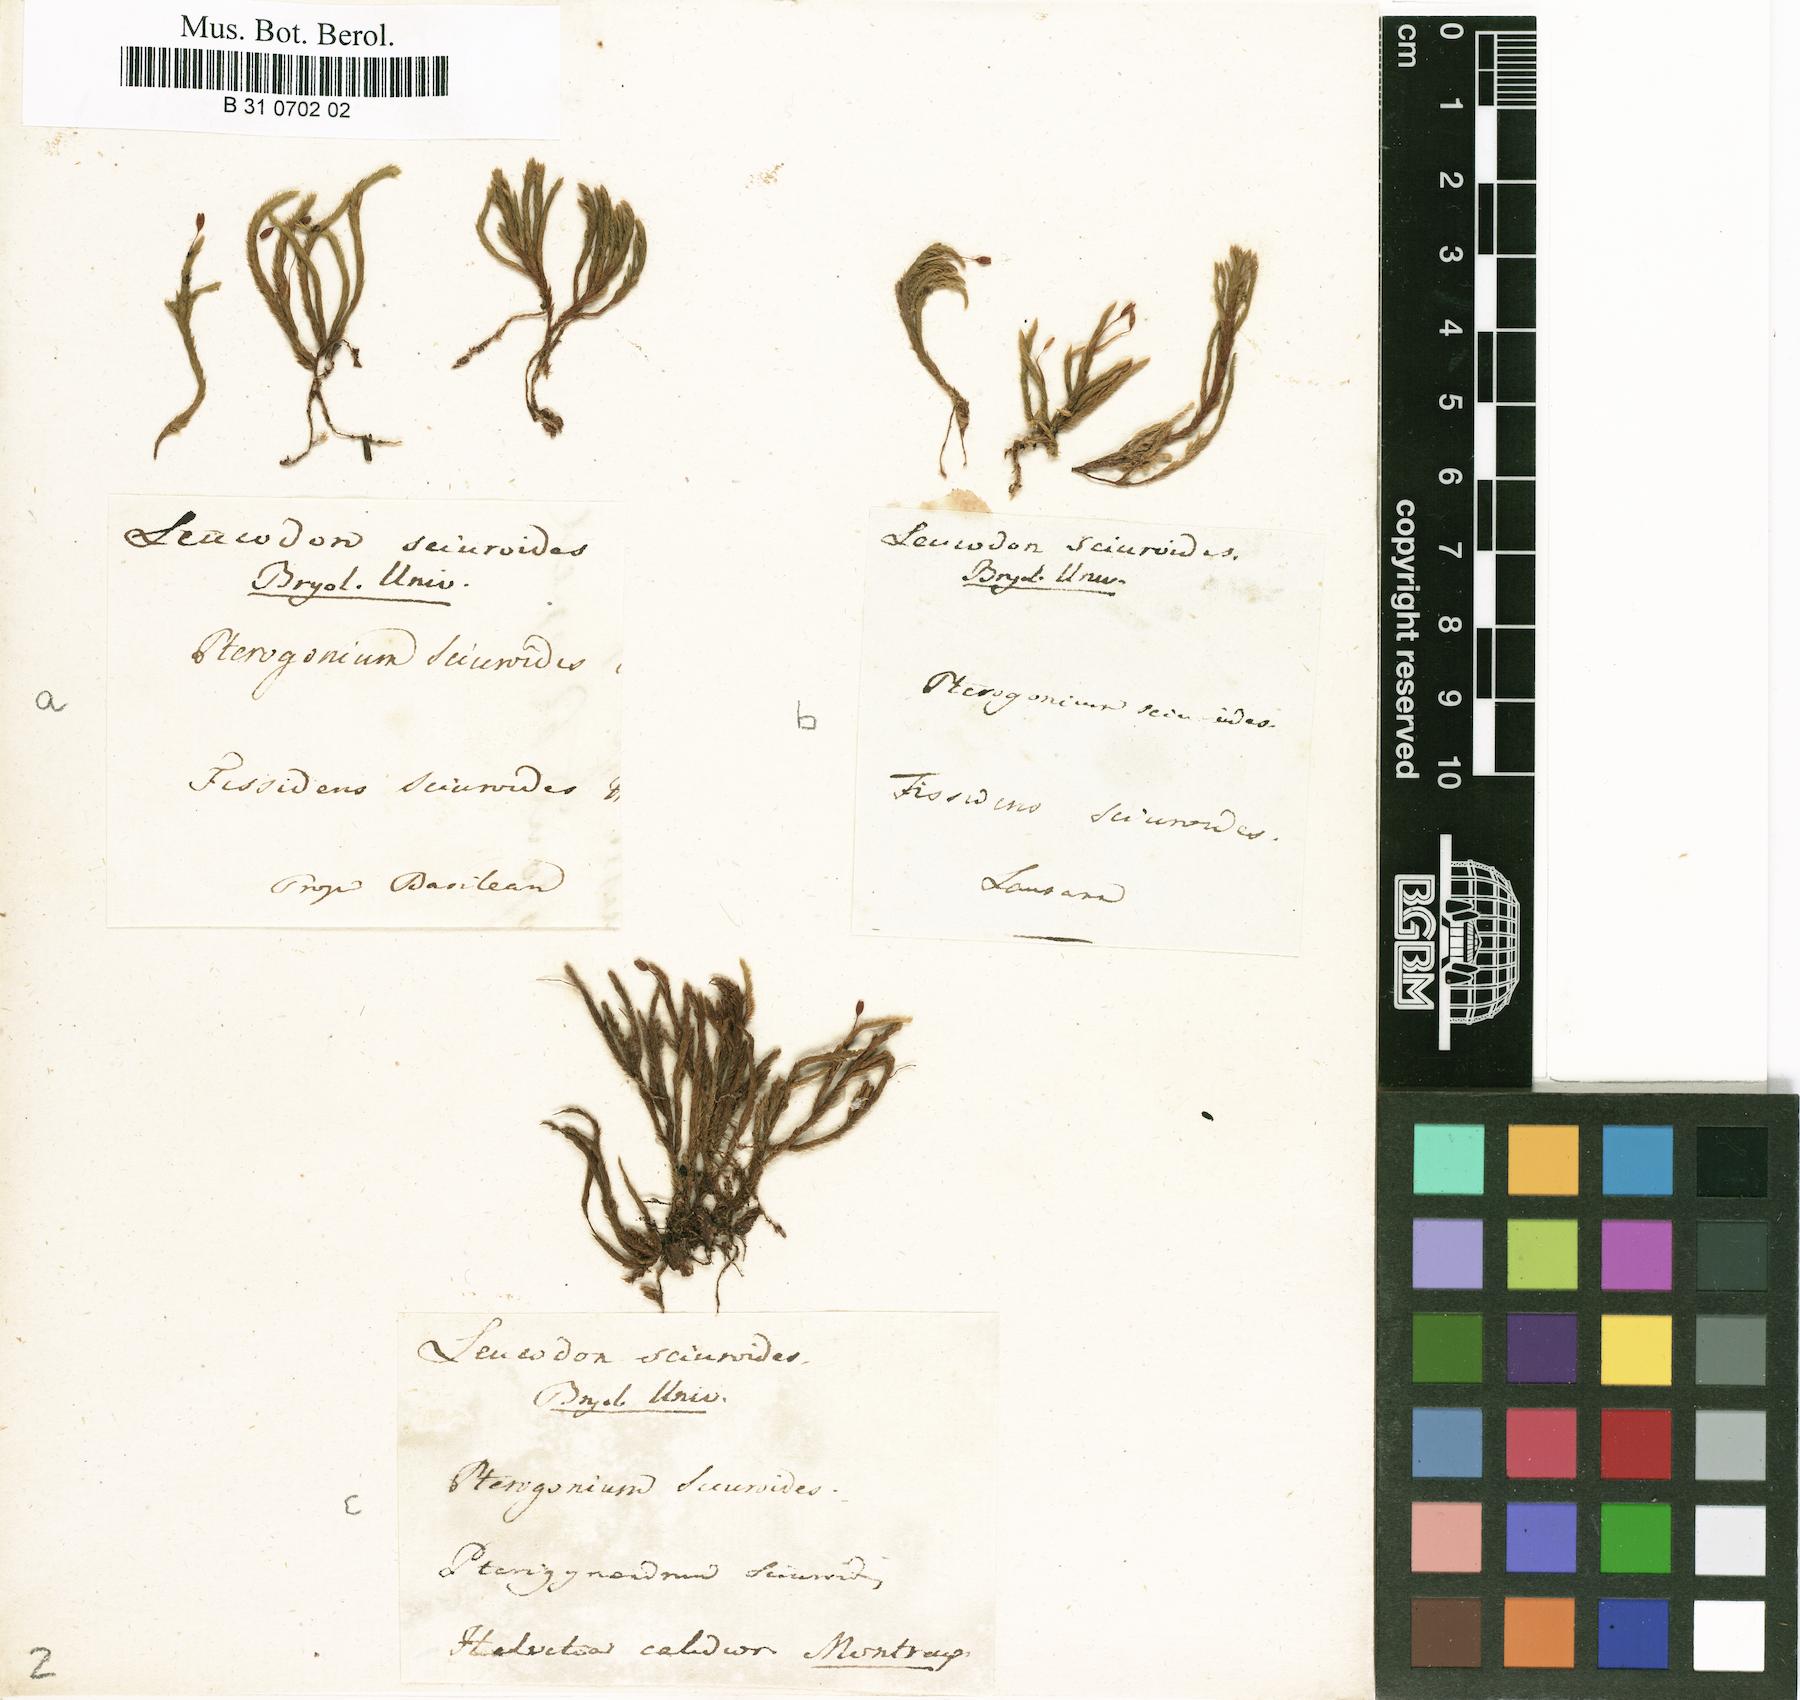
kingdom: Plantae
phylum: Bryophyta
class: Bryopsida
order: Hypnales
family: Leucodontaceae
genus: Leucodon
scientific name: Leucodon sciuroides
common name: Squirrel-tail moss
